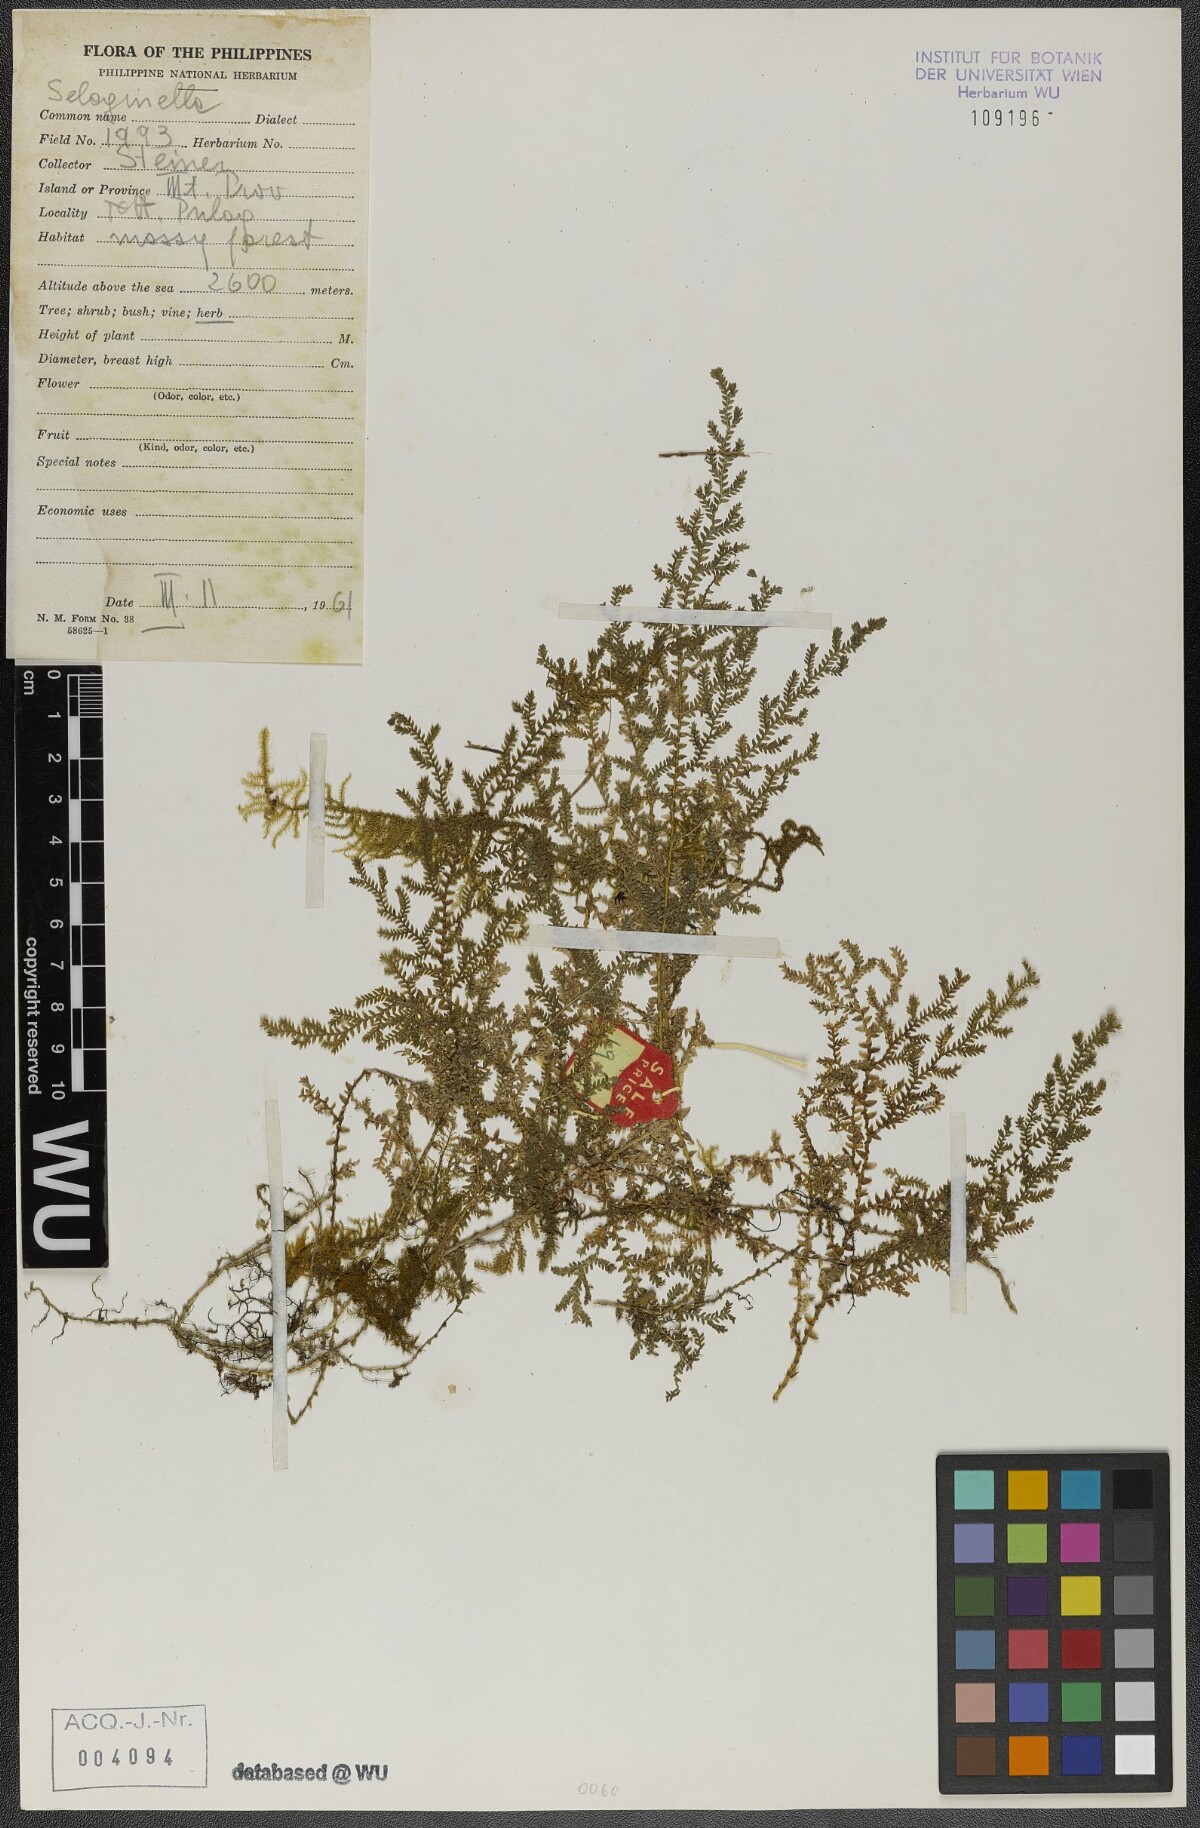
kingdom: Plantae
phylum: Tracheophyta
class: Lycopodiopsida
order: Selaginellales
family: Selaginellaceae
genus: Selaginella
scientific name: Selaginella
